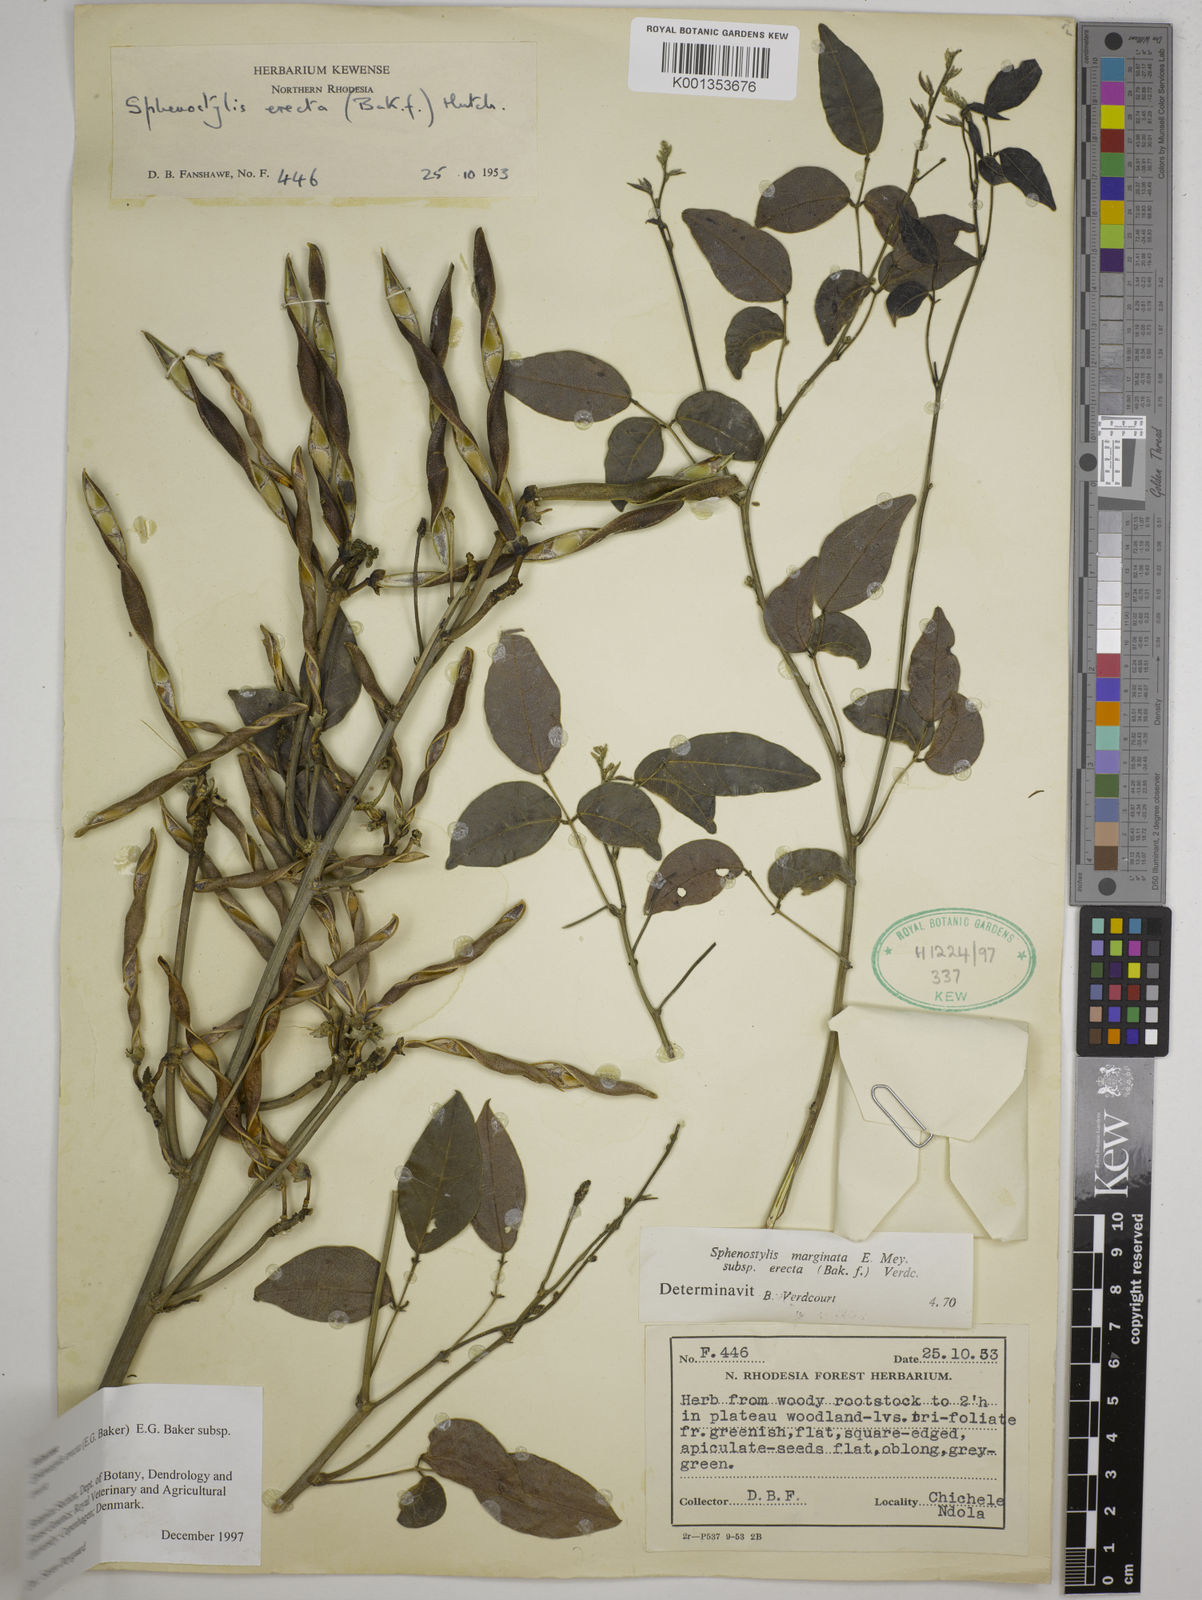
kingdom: Plantae
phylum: Tracheophyta
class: Magnoliopsida
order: Fabales
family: Fabaceae
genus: Sphenostylis
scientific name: Sphenostylis erecta
